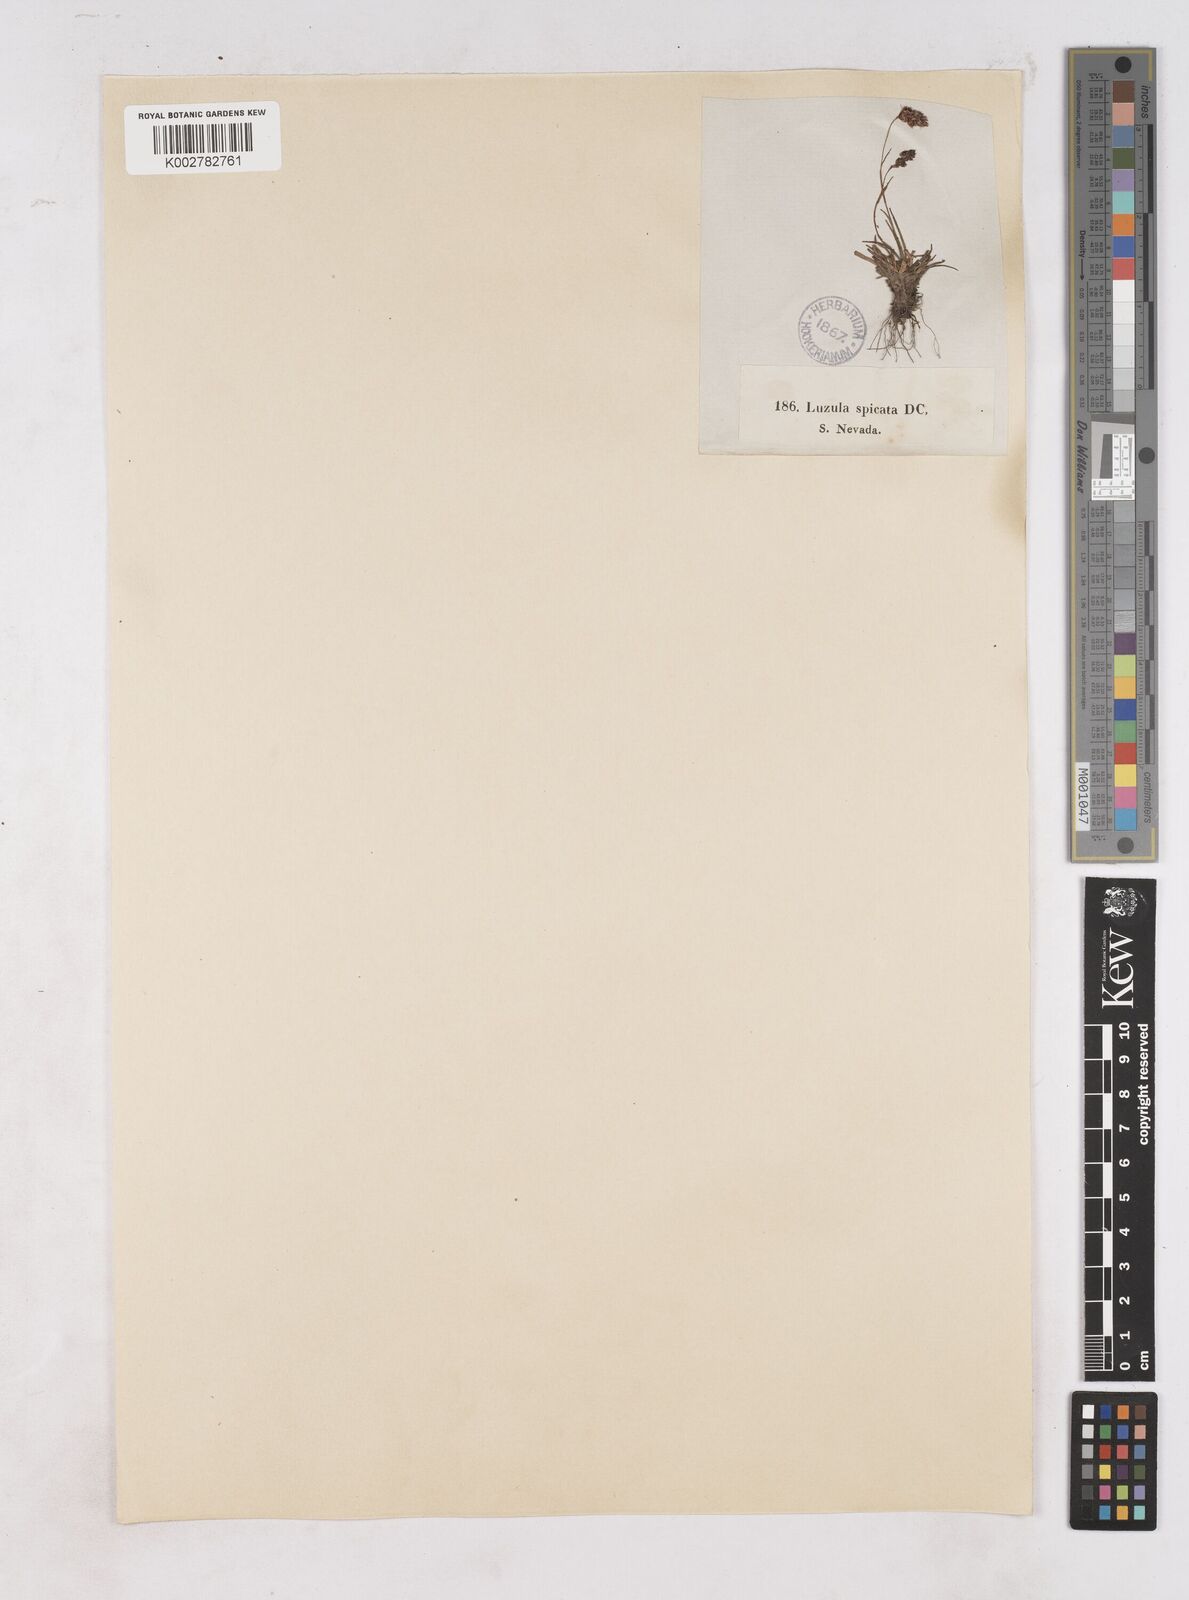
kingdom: Plantae
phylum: Tracheophyta
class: Liliopsida
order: Poales
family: Juncaceae
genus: Luzula
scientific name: Luzula spicata
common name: Spiked wood-rush
